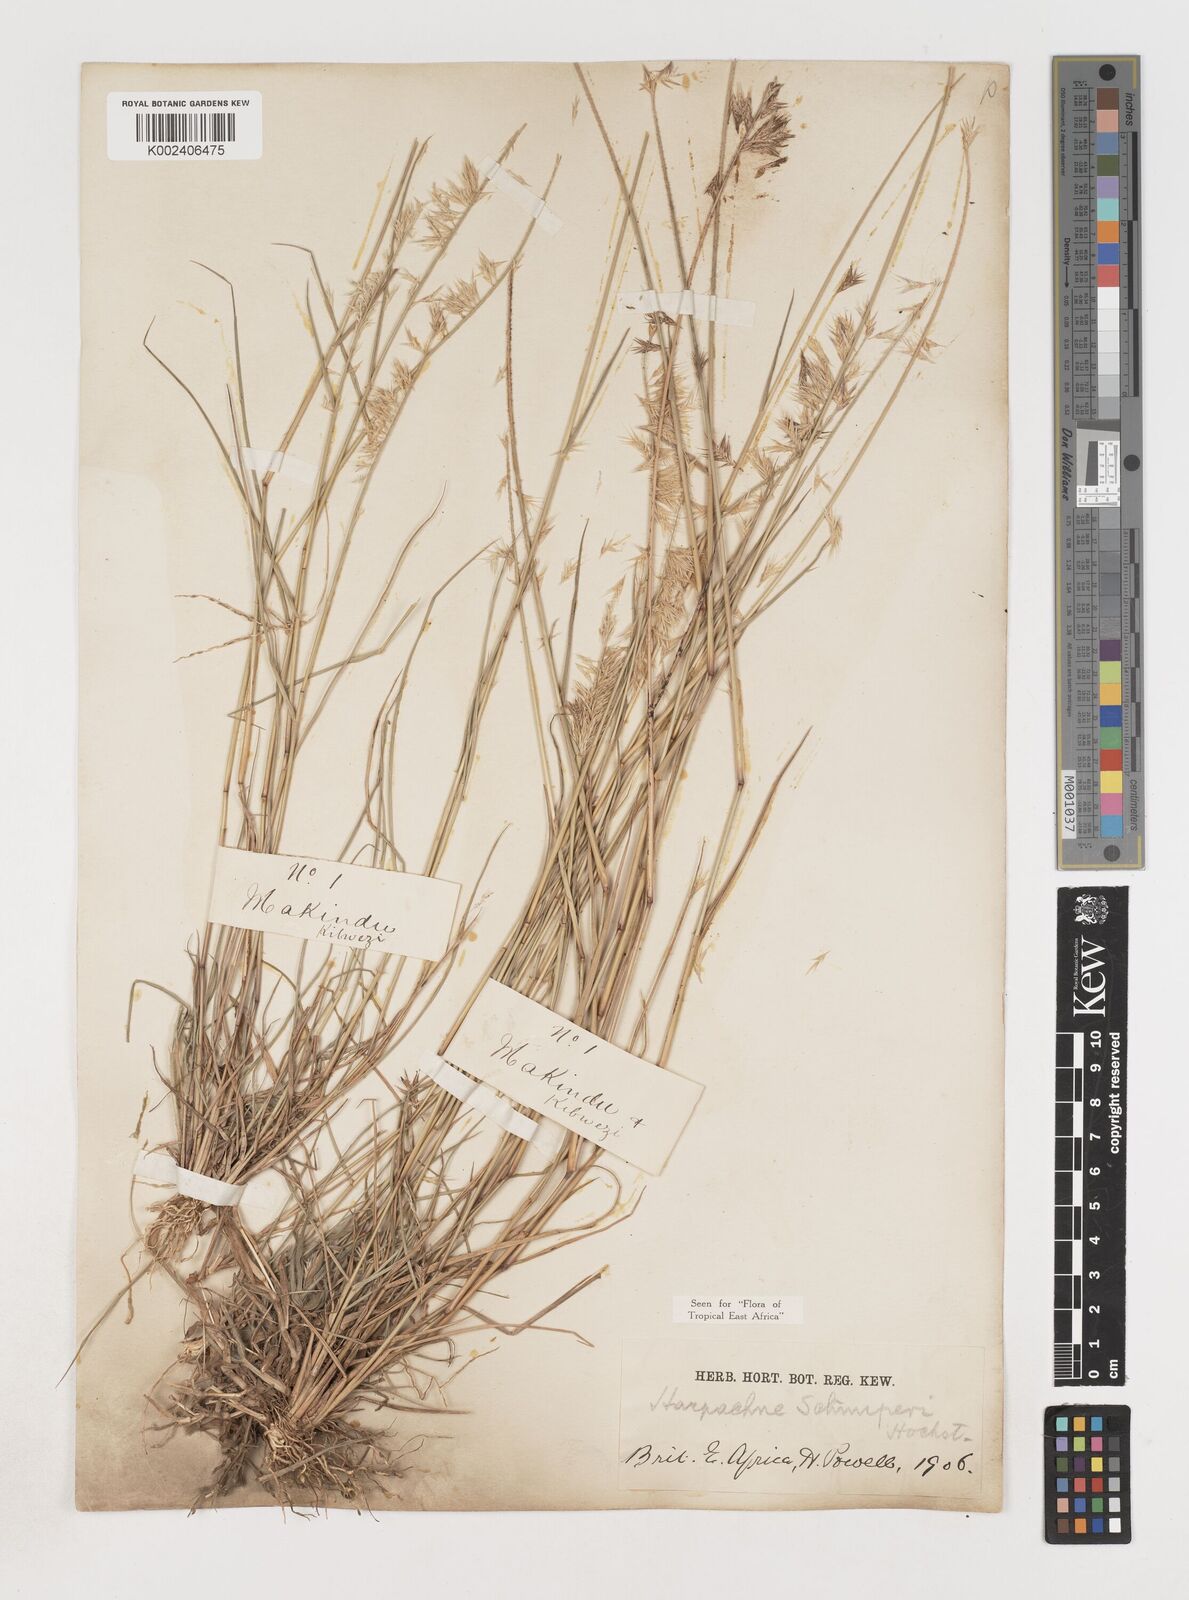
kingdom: Plantae
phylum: Tracheophyta
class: Liliopsida
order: Poales
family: Poaceae
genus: Harpachne
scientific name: Harpachne schimperi
